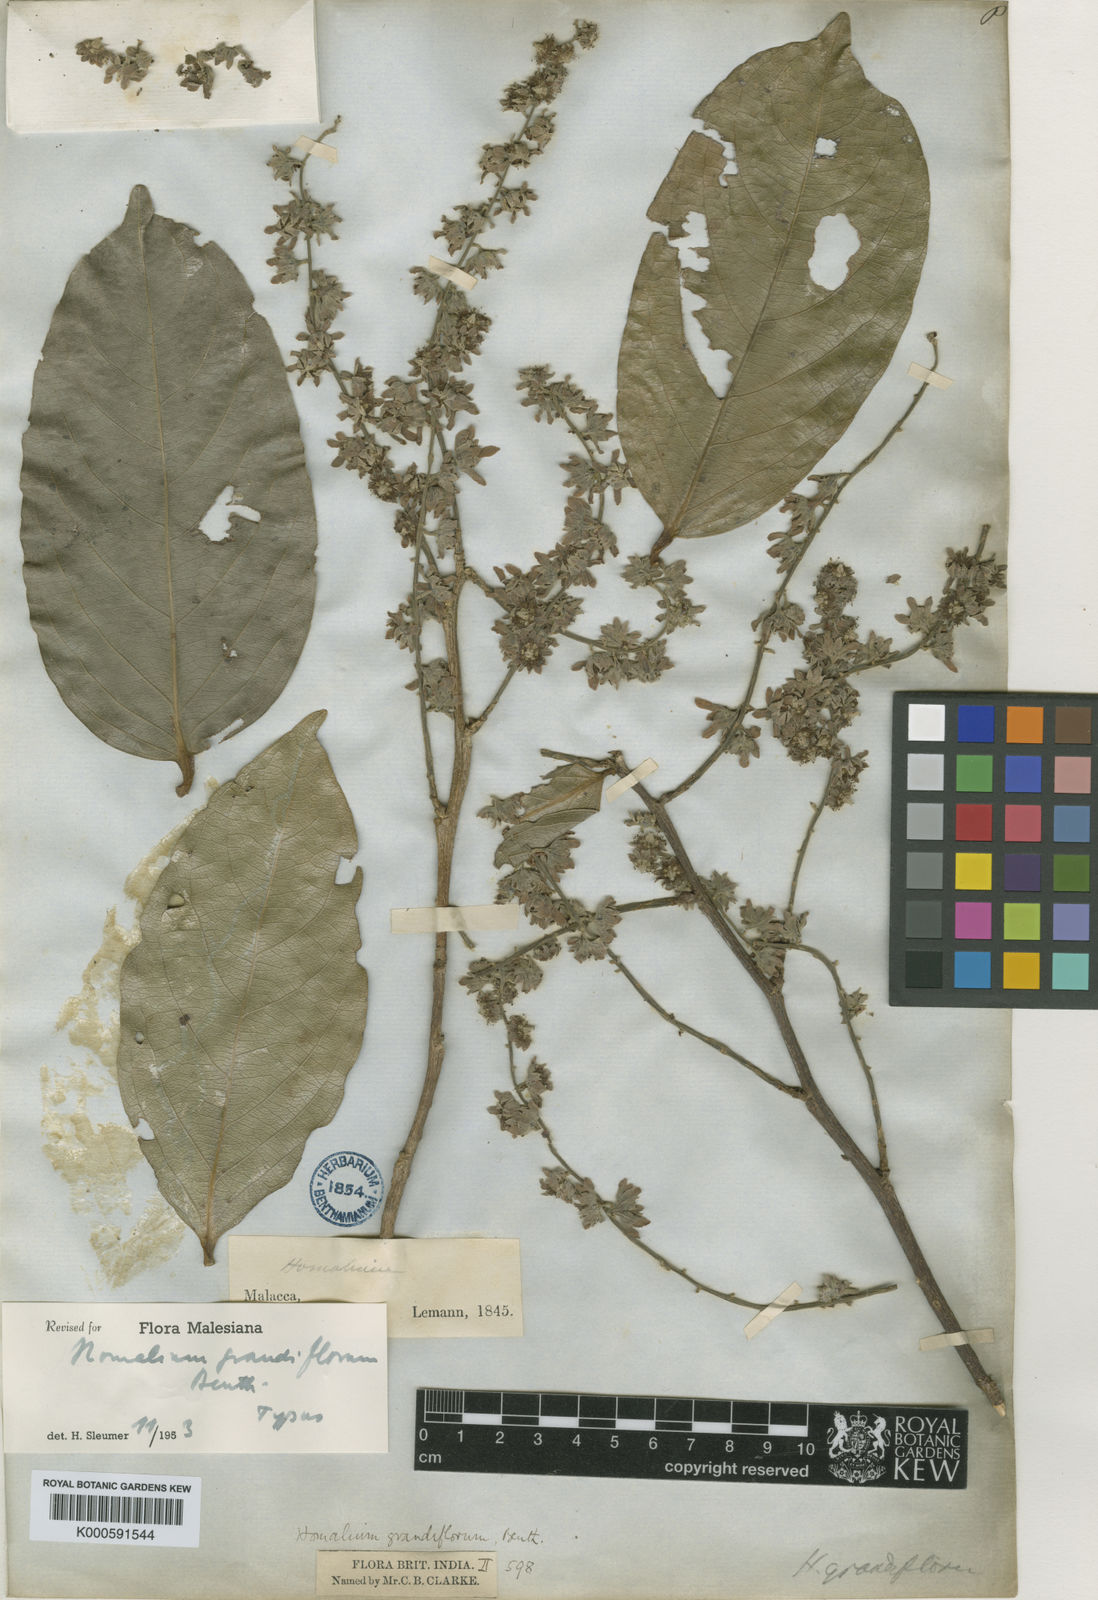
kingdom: Plantae
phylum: Tracheophyta
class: Magnoliopsida
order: Malpighiales
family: Salicaceae
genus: Homalium
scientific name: Homalium grandiflorum
